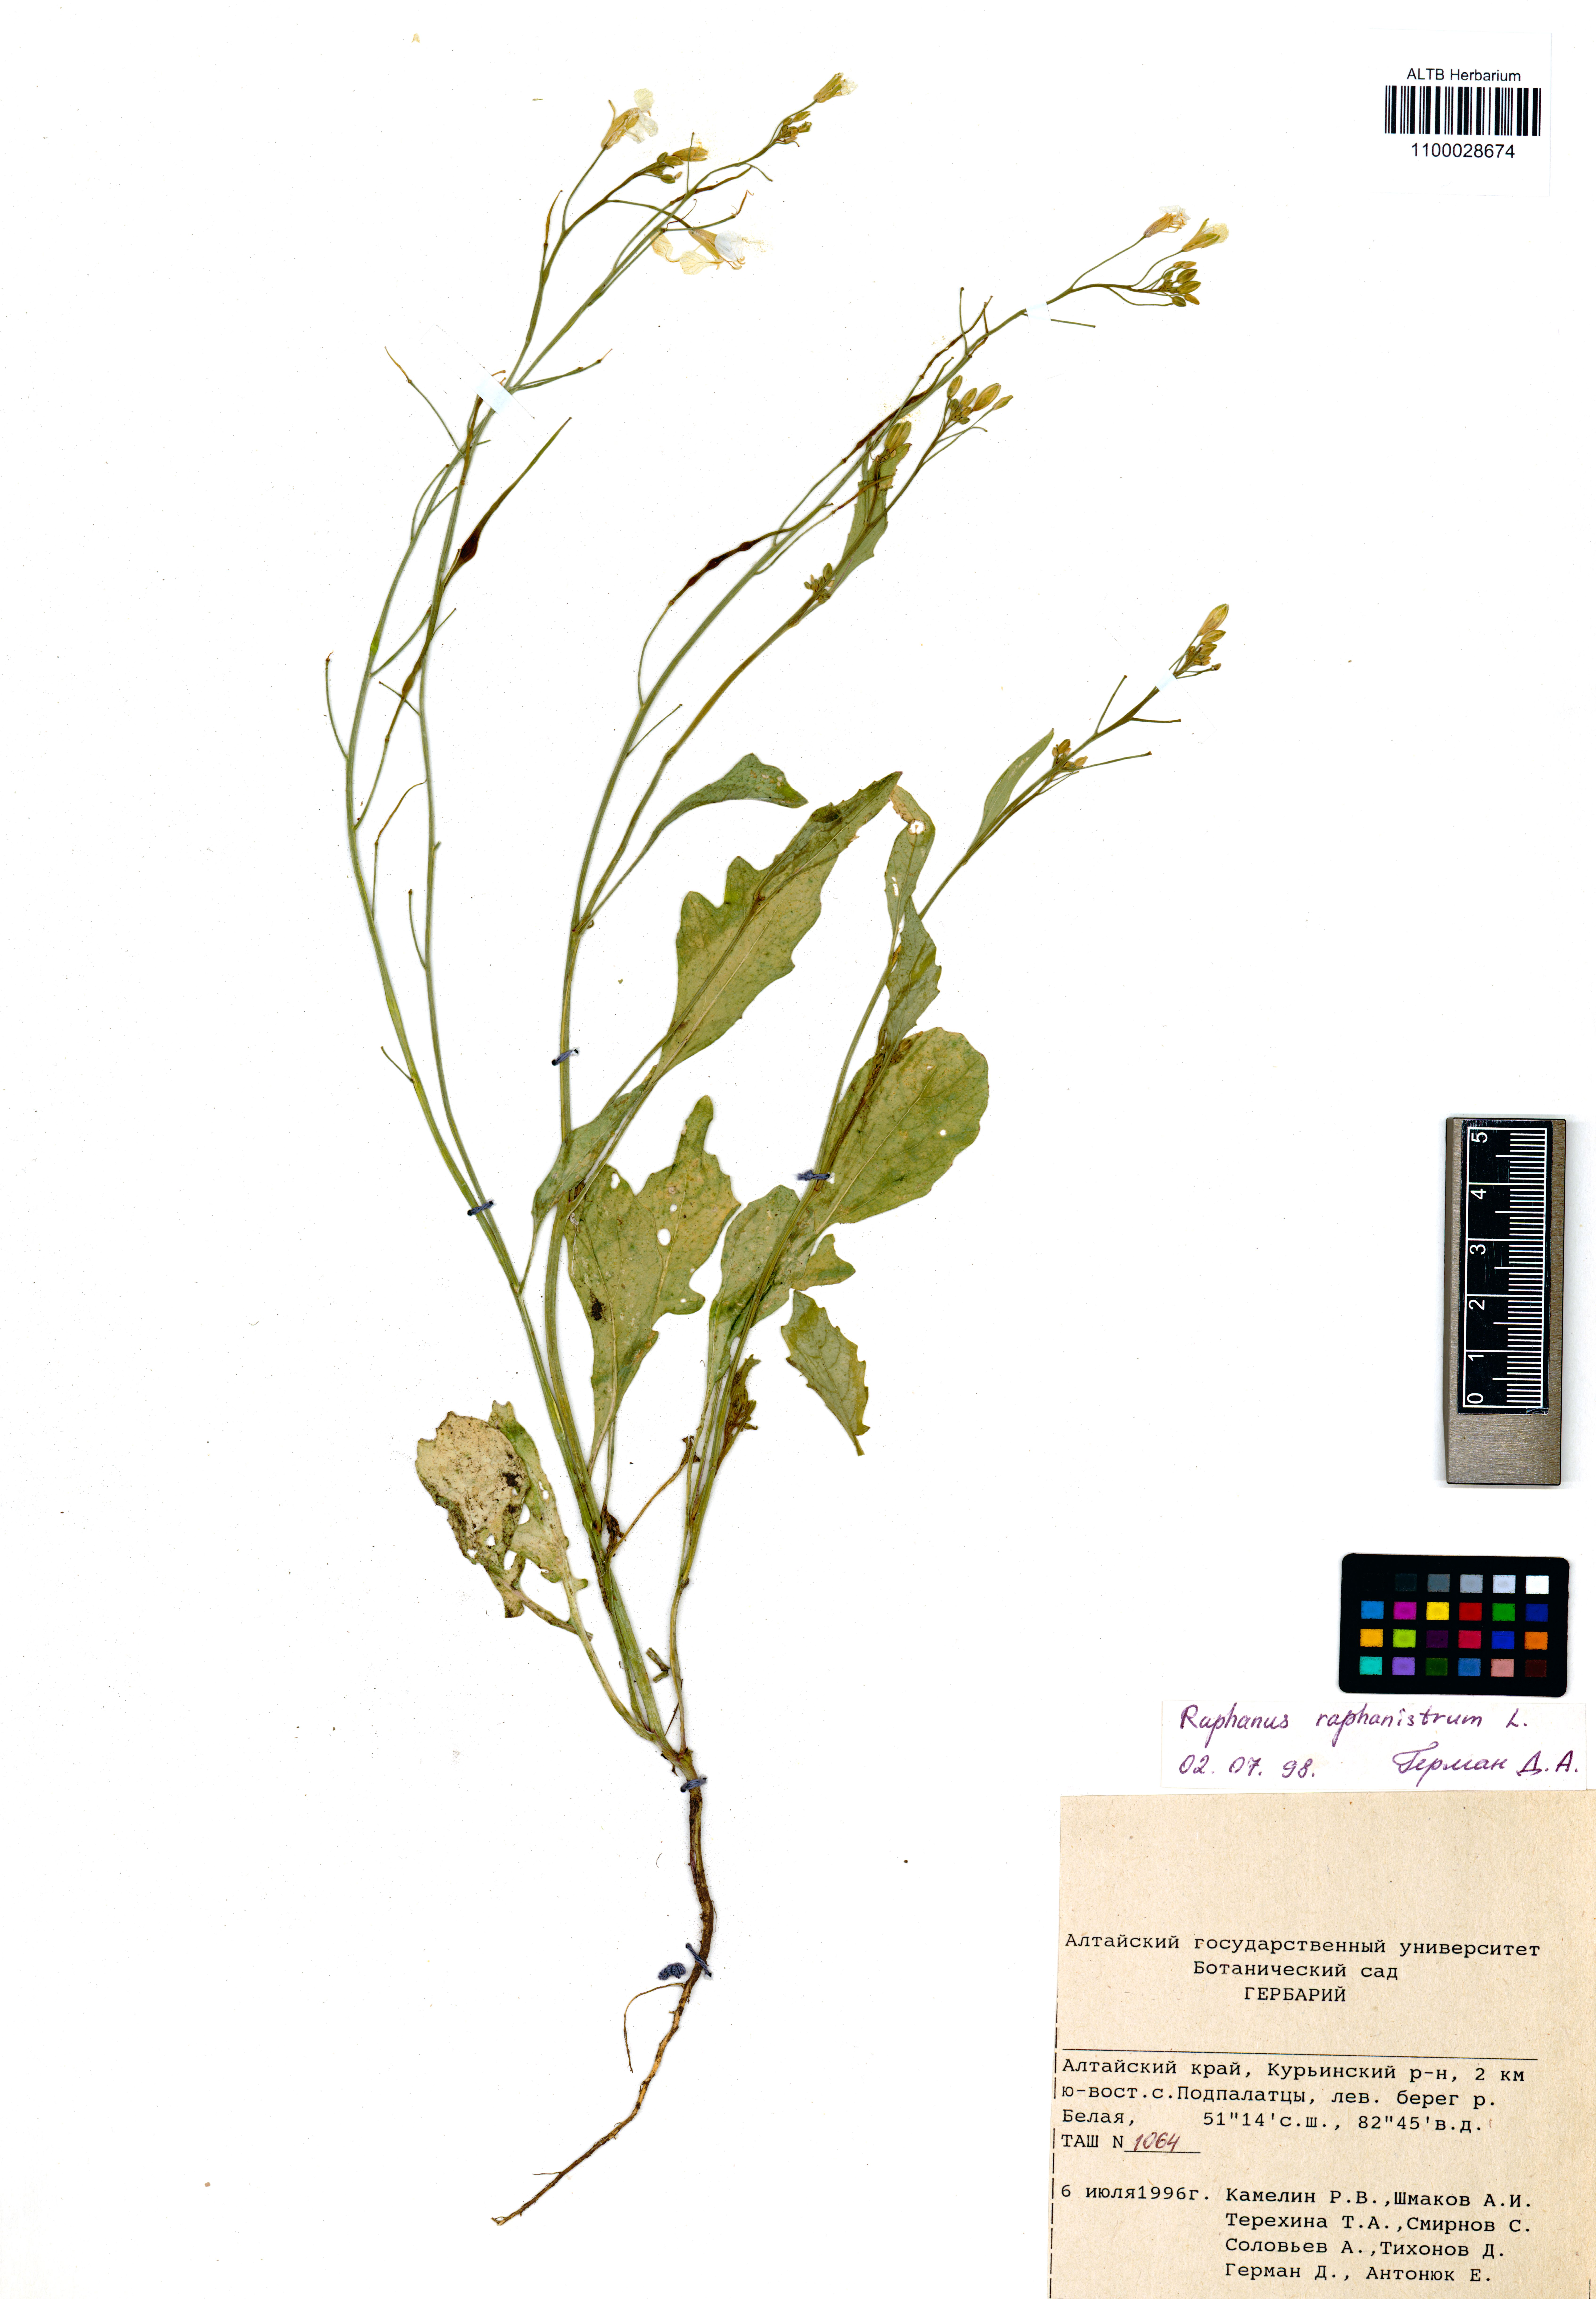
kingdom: Plantae
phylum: Tracheophyta
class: Magnoliopsida
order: Brassicales
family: Brassicaceae
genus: Raphanus
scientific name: Raphanus raphanistrum
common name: Wild radish
